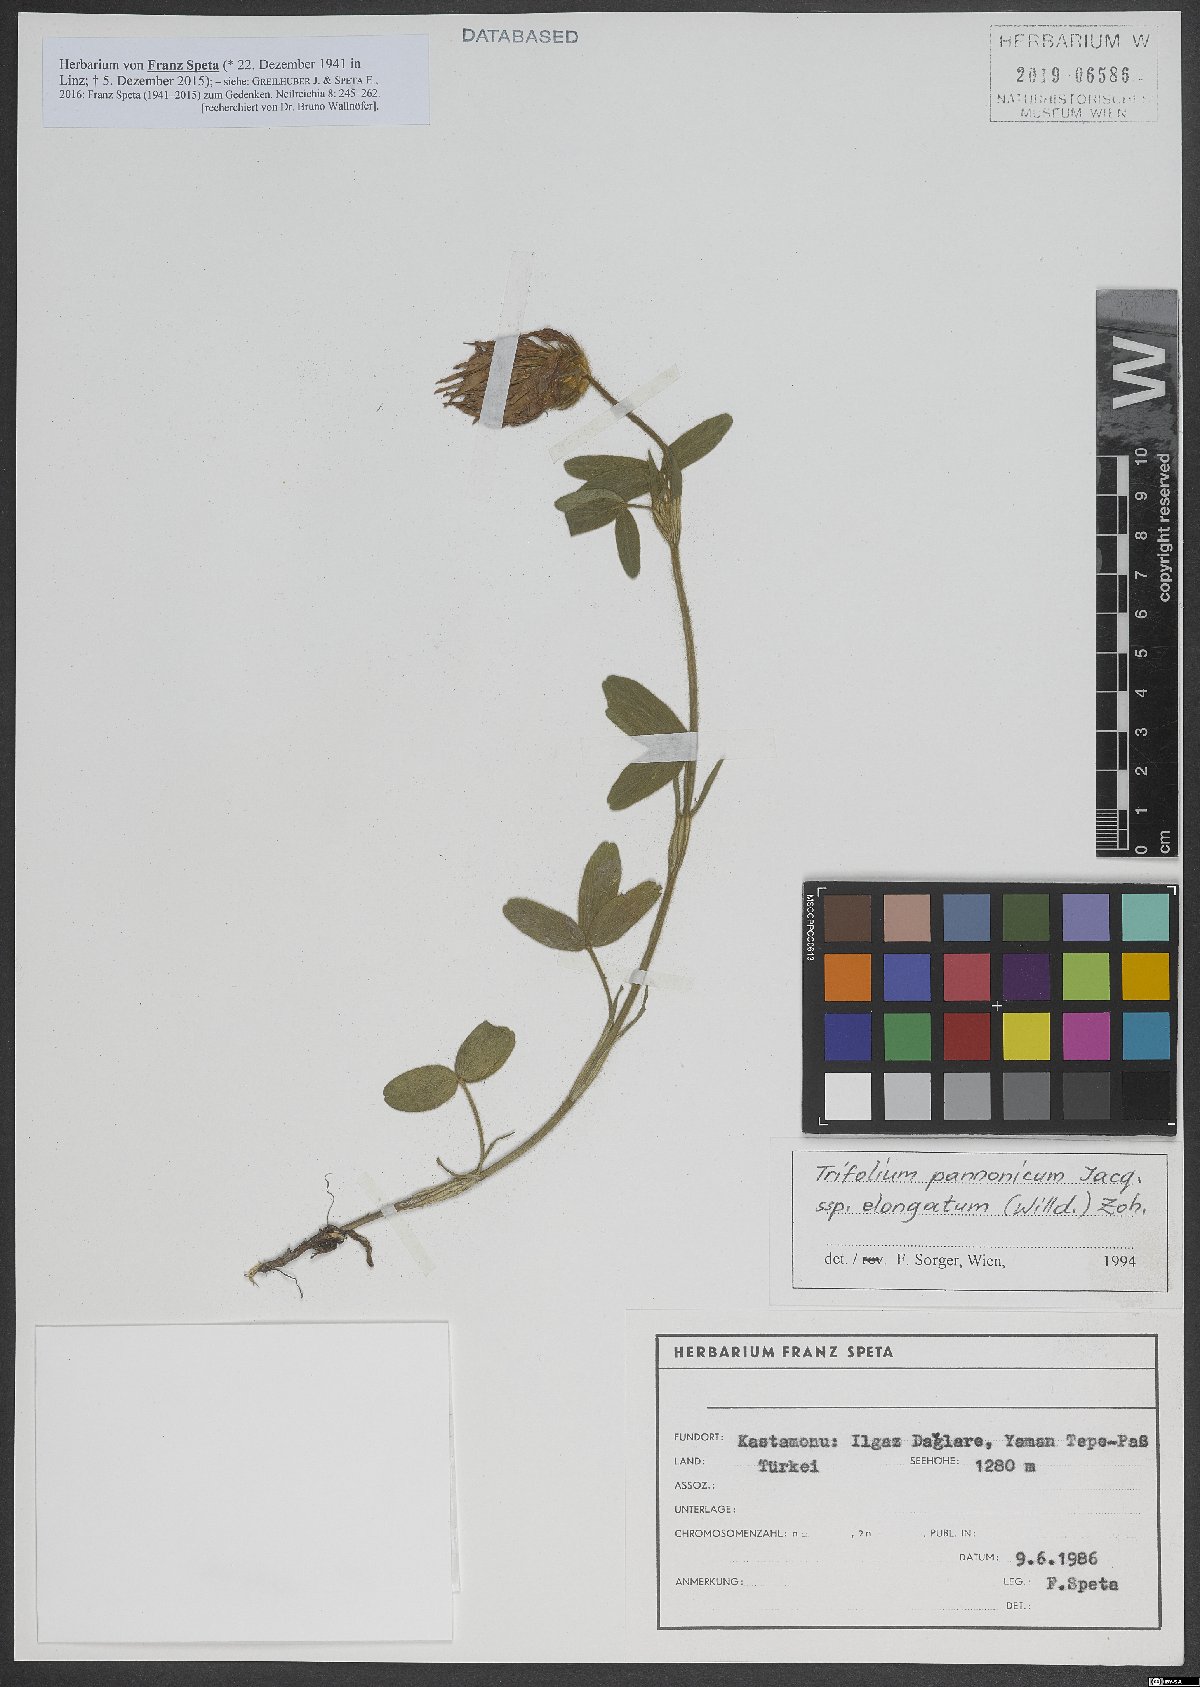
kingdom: Plantae
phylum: Tracheophyta
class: Magnoliopsida
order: Fabales
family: Fabaceae
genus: Trifolium
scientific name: Trifolium pannonicum
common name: Hungarian clover
